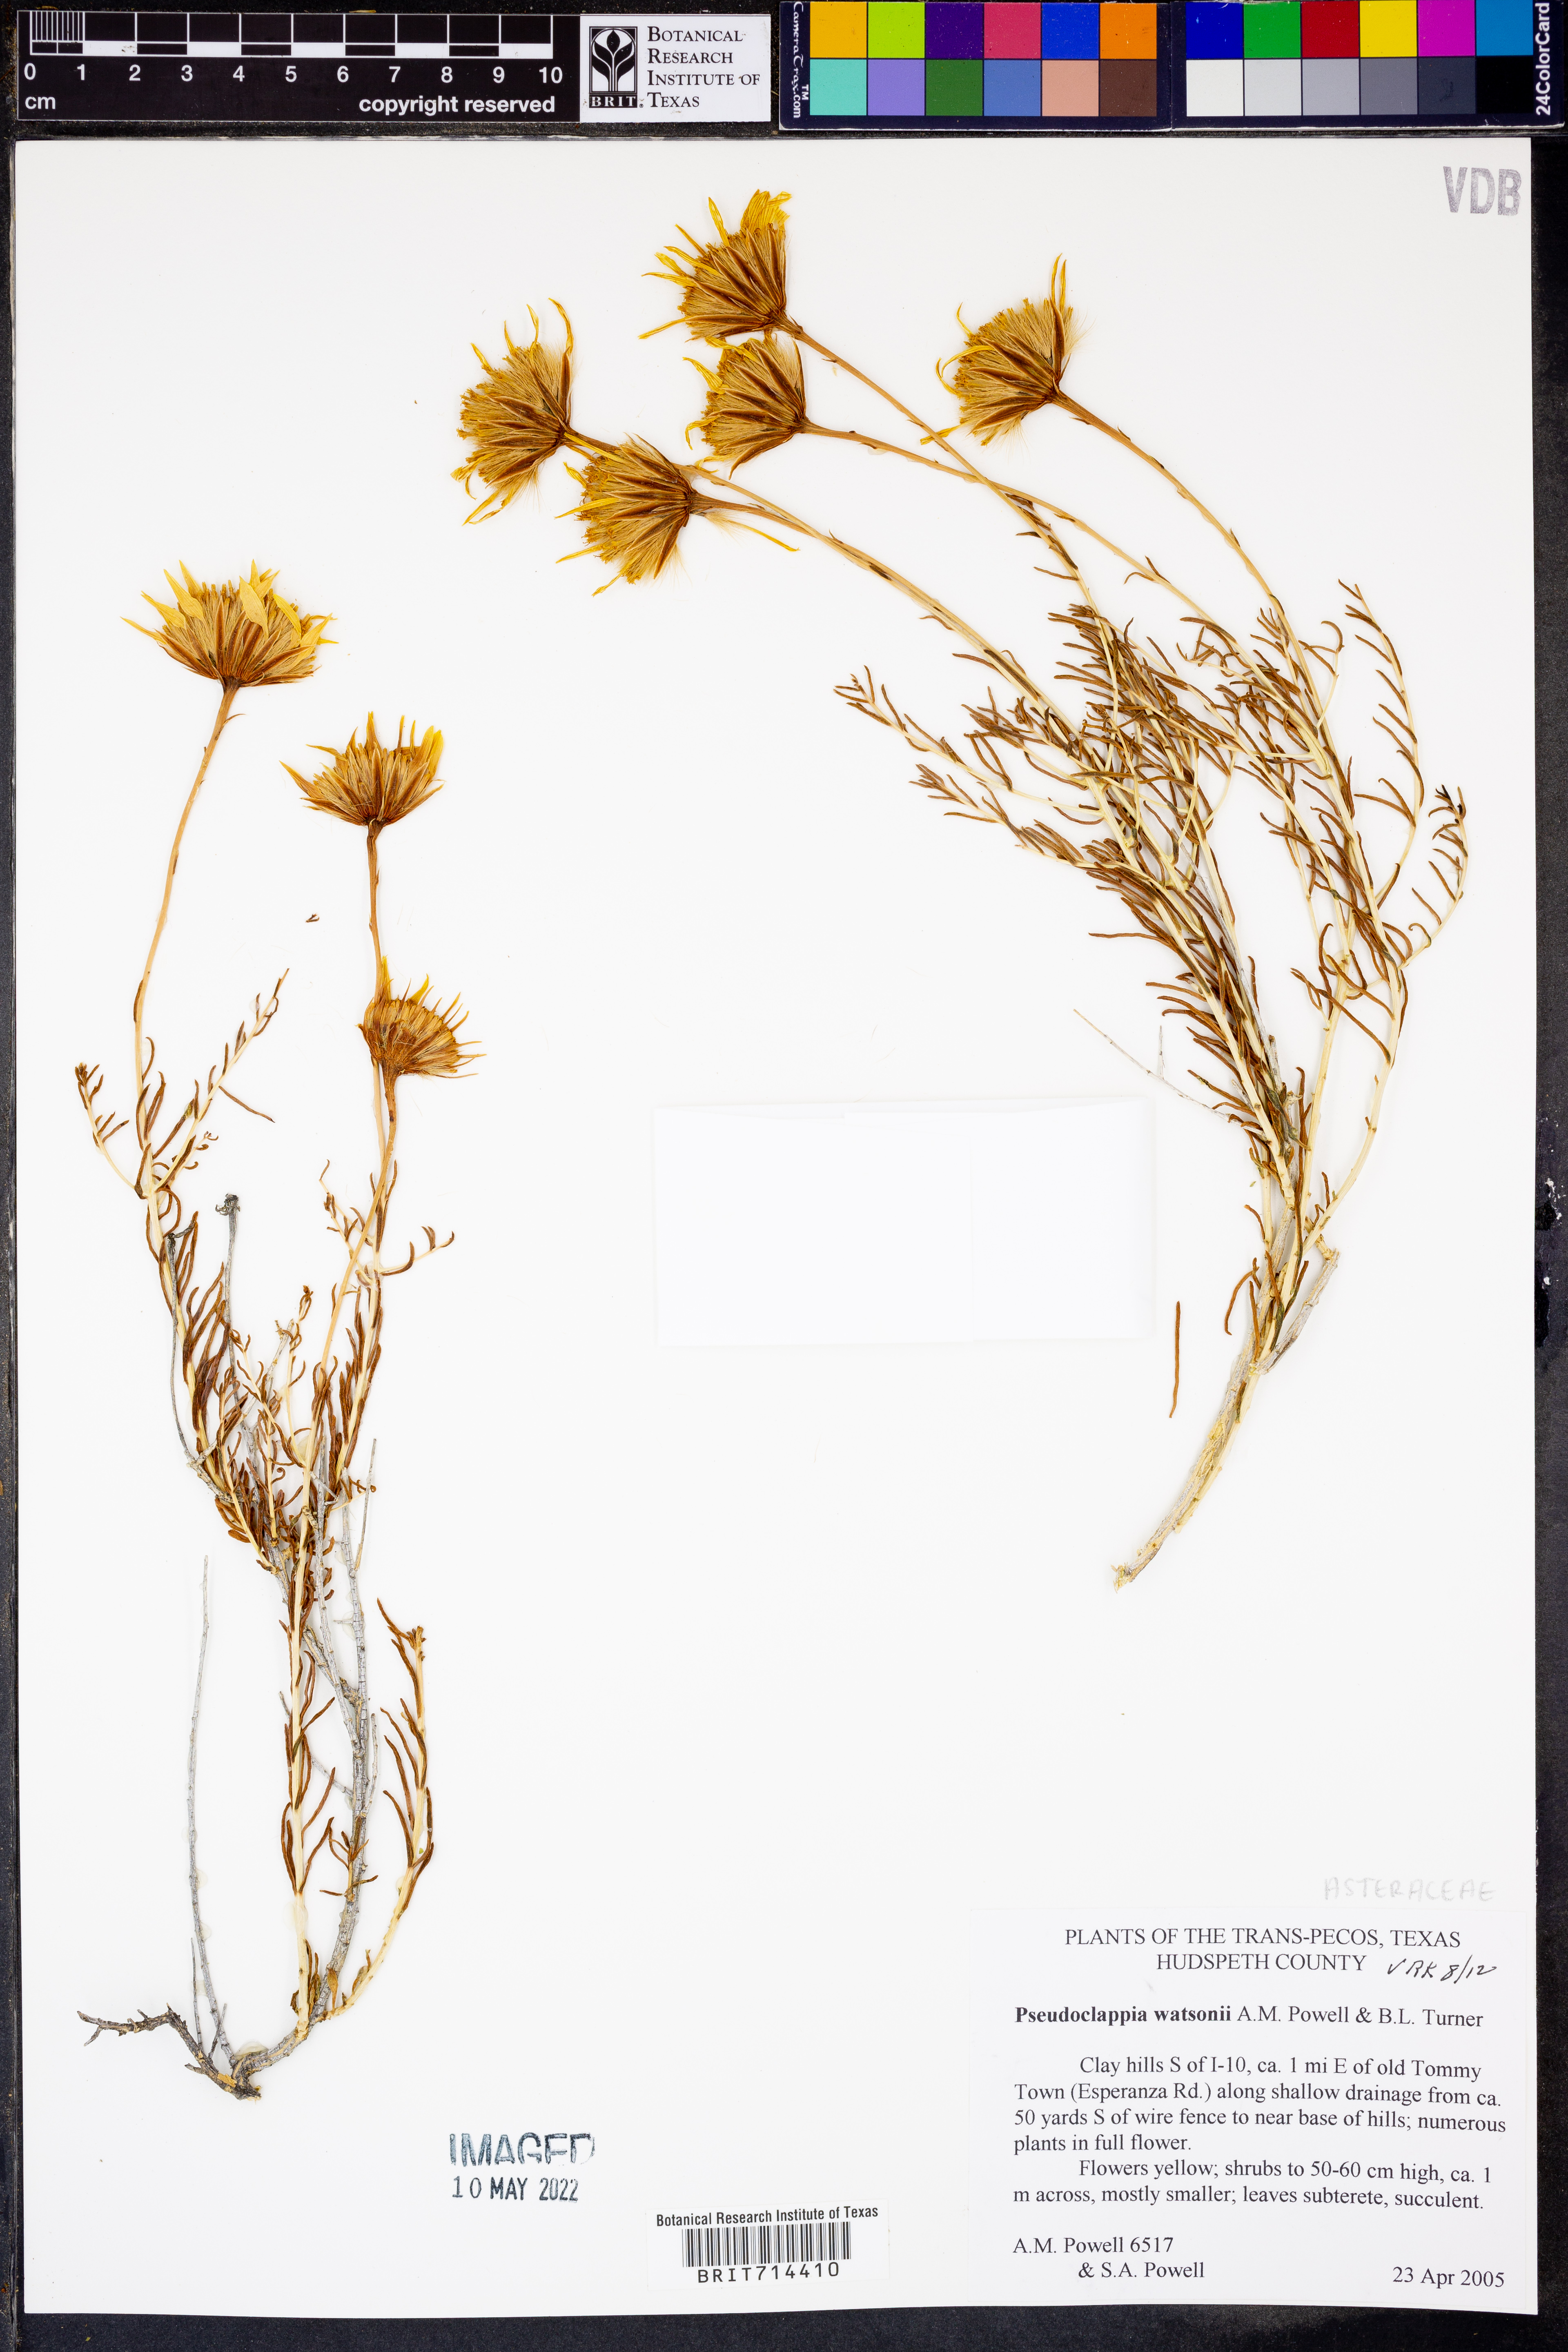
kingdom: Plantae
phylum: Tracheophyta
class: Magnoliopsida
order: Asterales
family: Asteraceae
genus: Pseudoclappia
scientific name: Pseudoclappia watsonii
